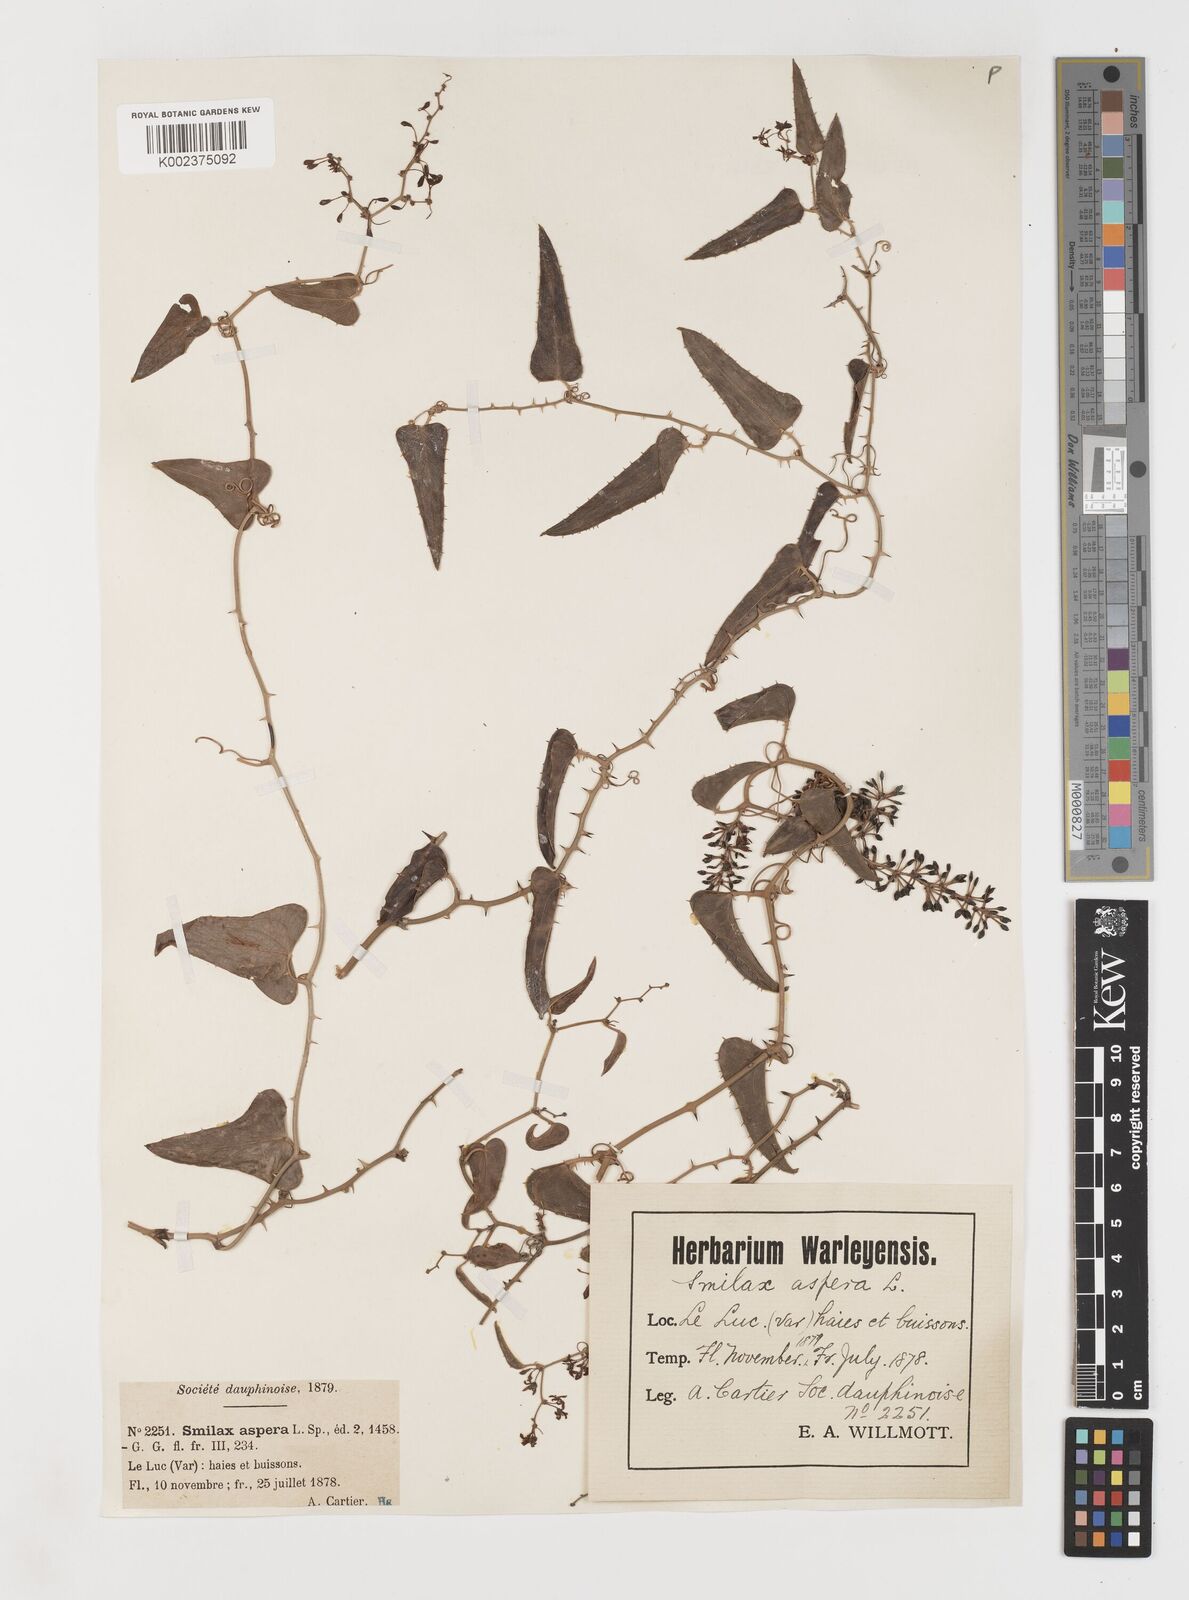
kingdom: Plantae
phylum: Tracheophyta
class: Liliopsida
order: Liliales
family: Smilacaceae
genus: Smilax
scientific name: Smilax aspera
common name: Common smilax
